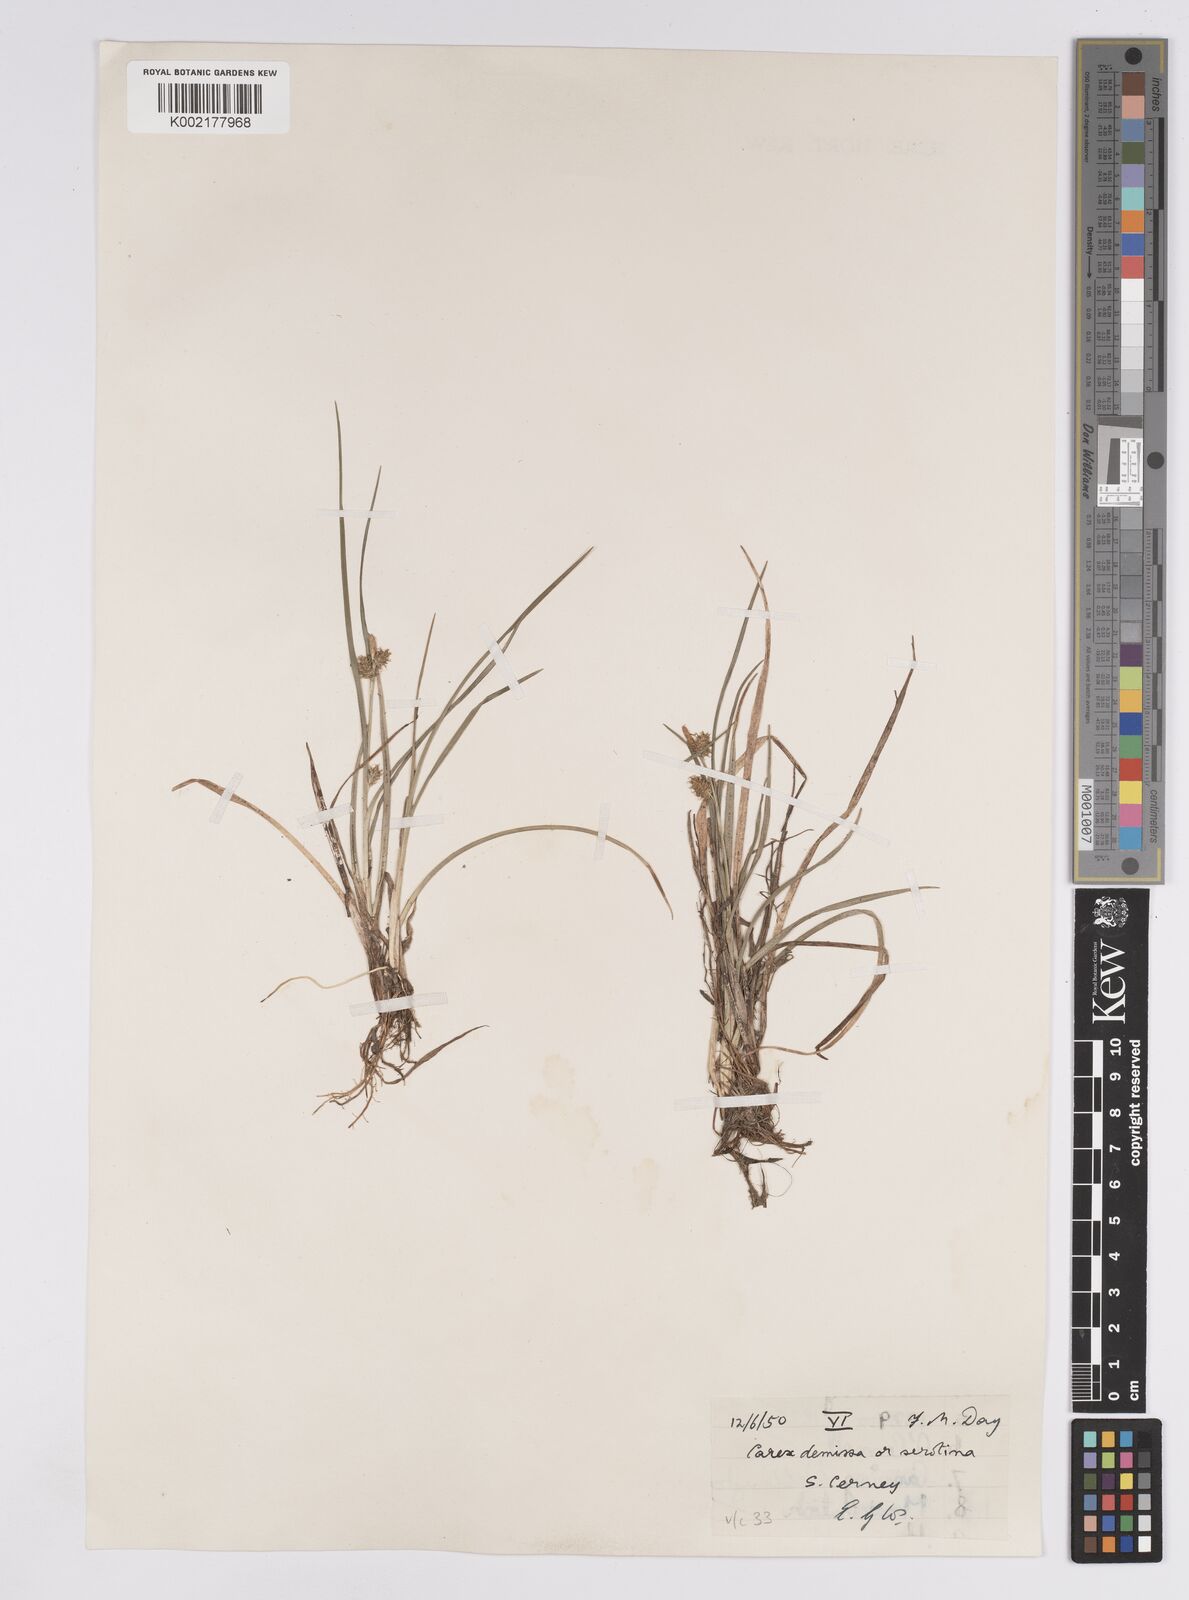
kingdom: Plantae
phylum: Tracheophyta
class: Liliopsida
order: Poales
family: Cyperaceae
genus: Carex
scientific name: Carex demissa
